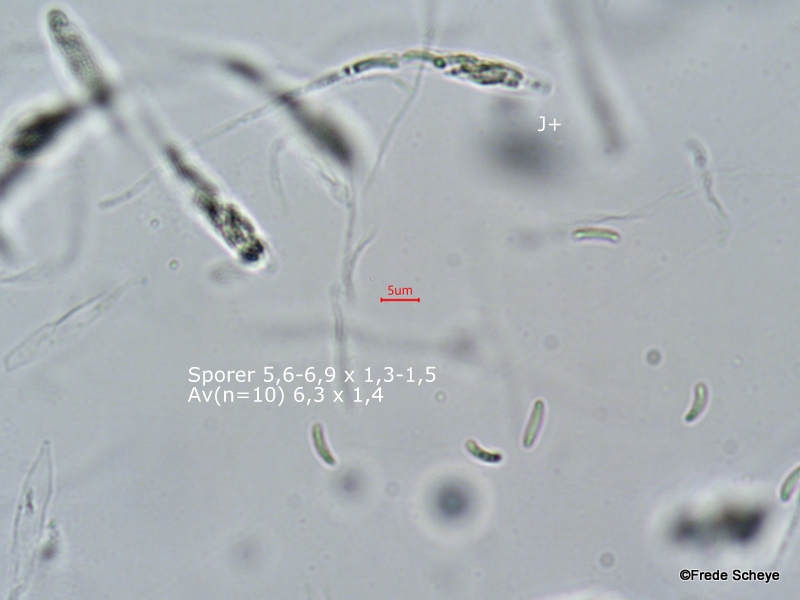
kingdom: Fungi
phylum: Ascomycota
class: Sordariomycetes
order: Xylariales
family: Diatrypaceae
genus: Diatrype
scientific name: Diatrype disciformis
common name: kant-kulskorpe
